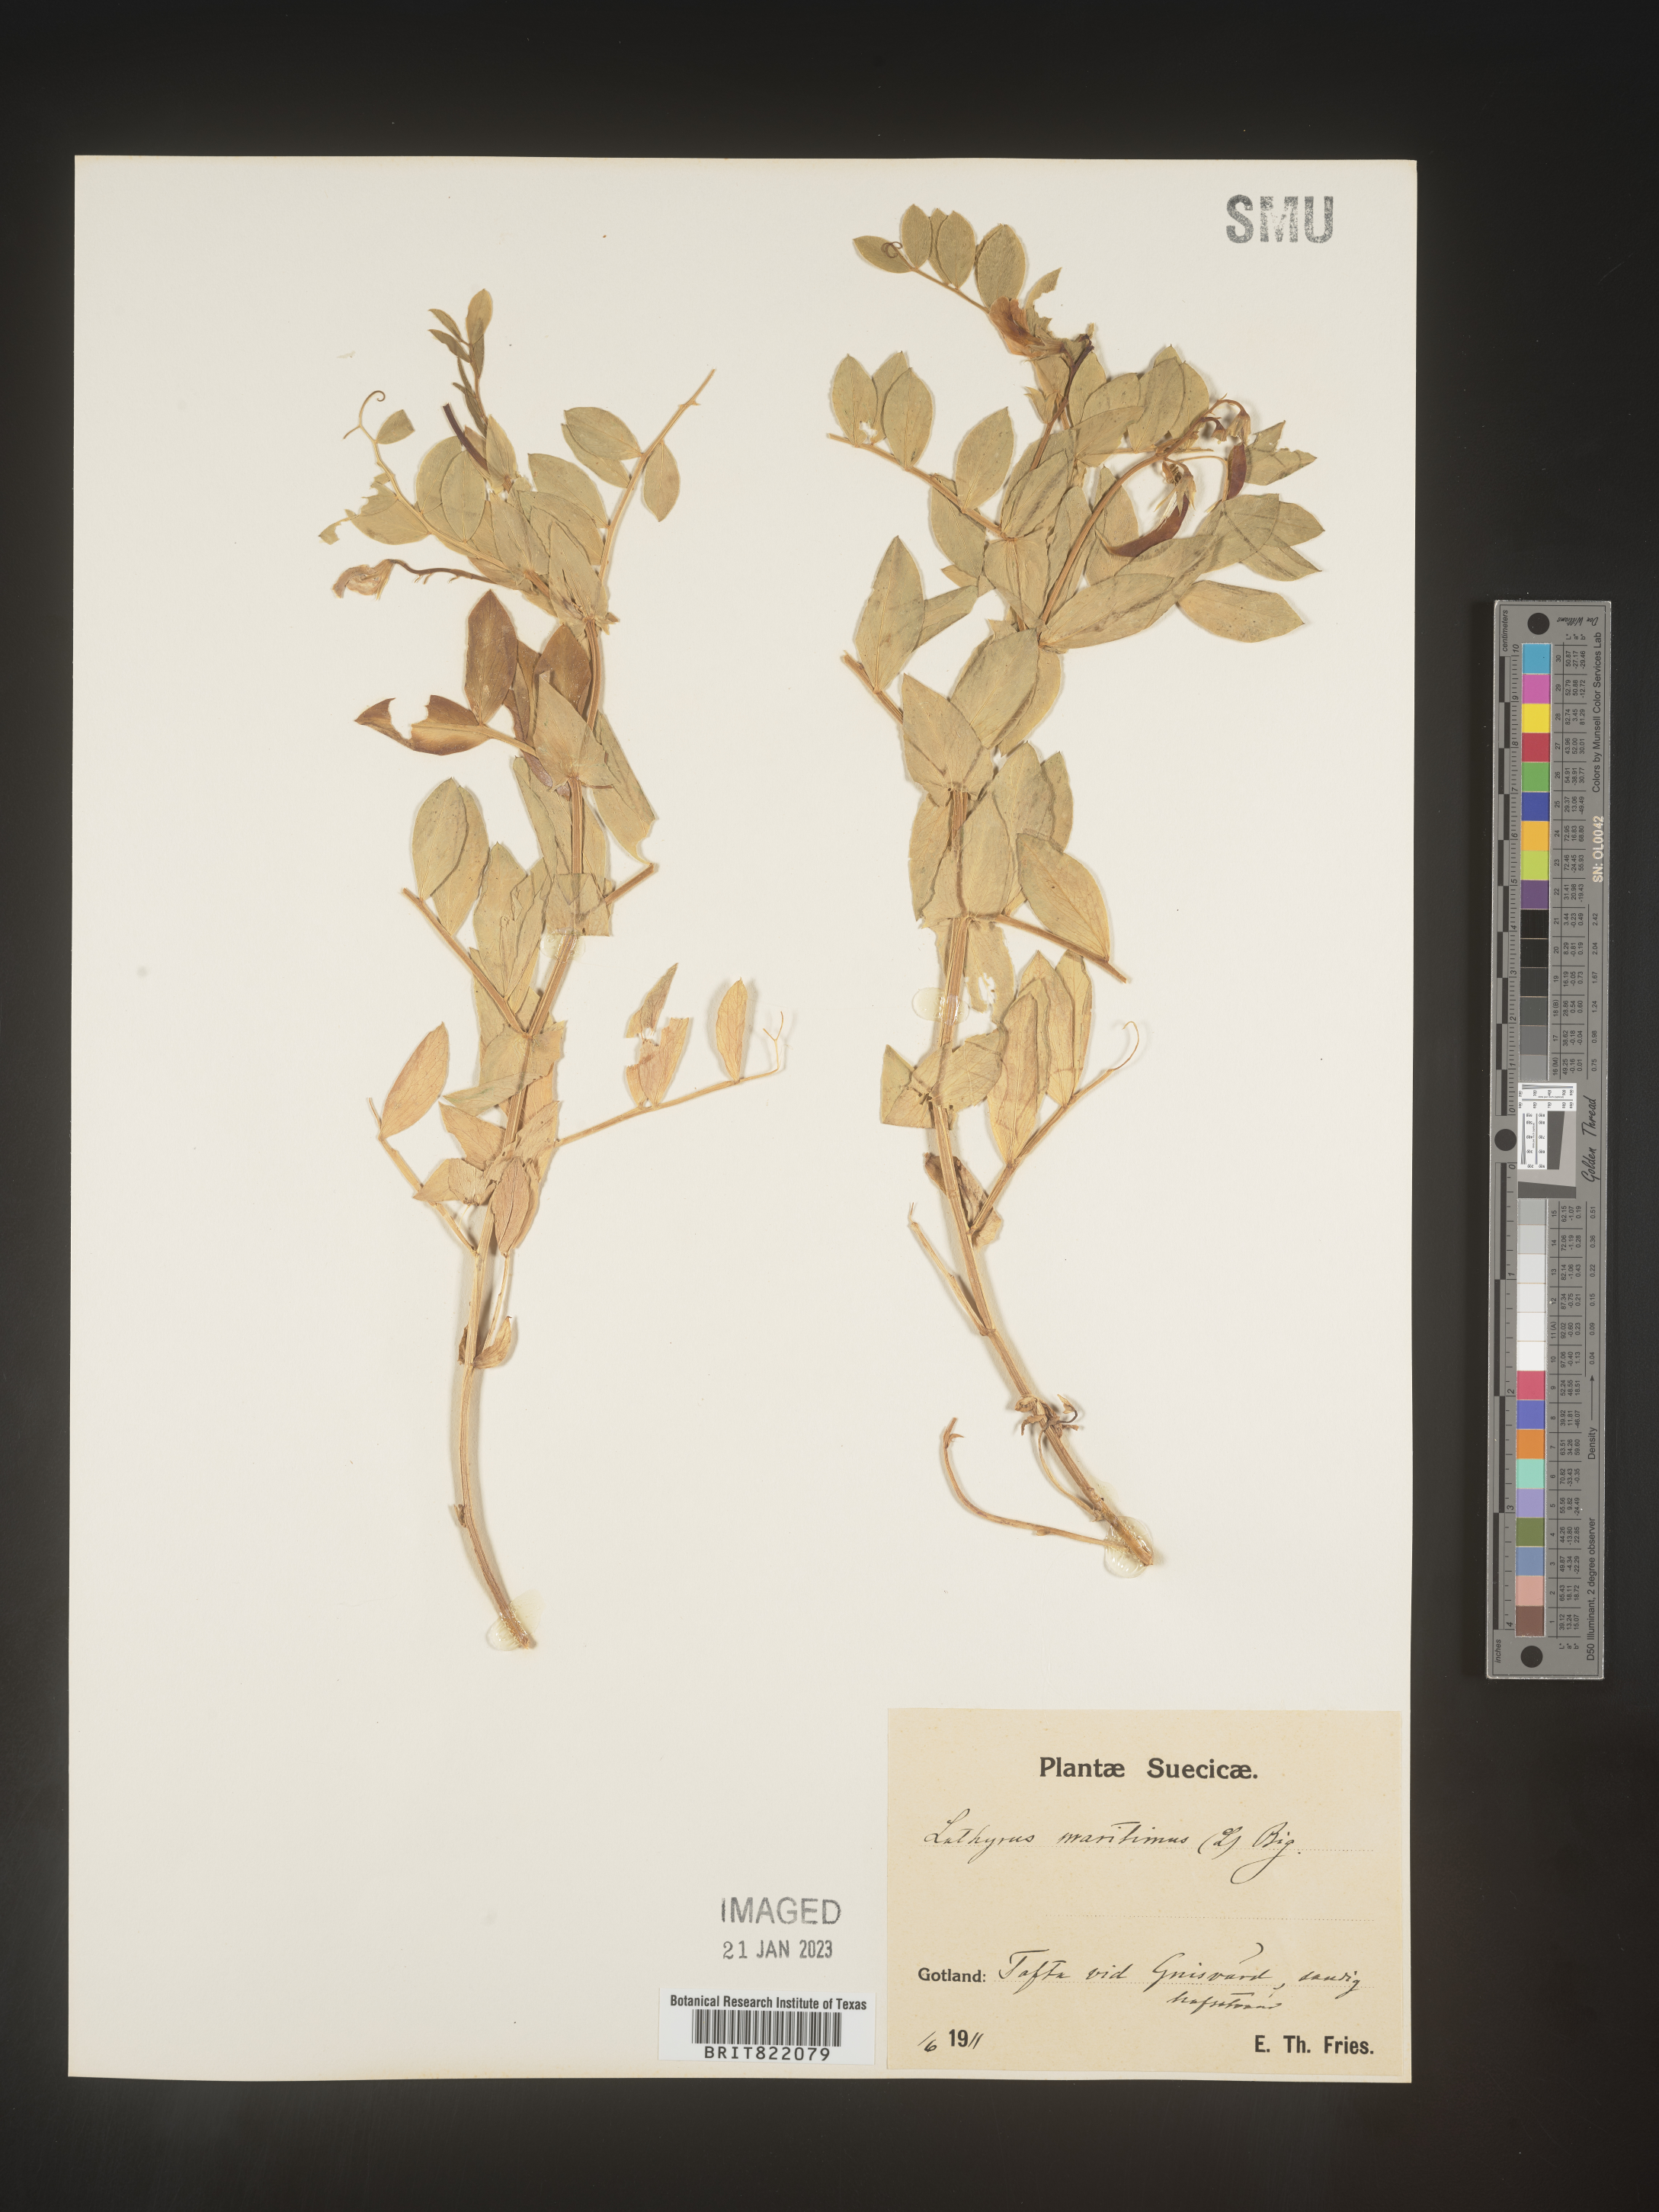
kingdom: Plantae
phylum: Tracheophyta
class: Magnoliopsida
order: Fabales
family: Fabaceae
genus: Lathyrus
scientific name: Lathyrus
